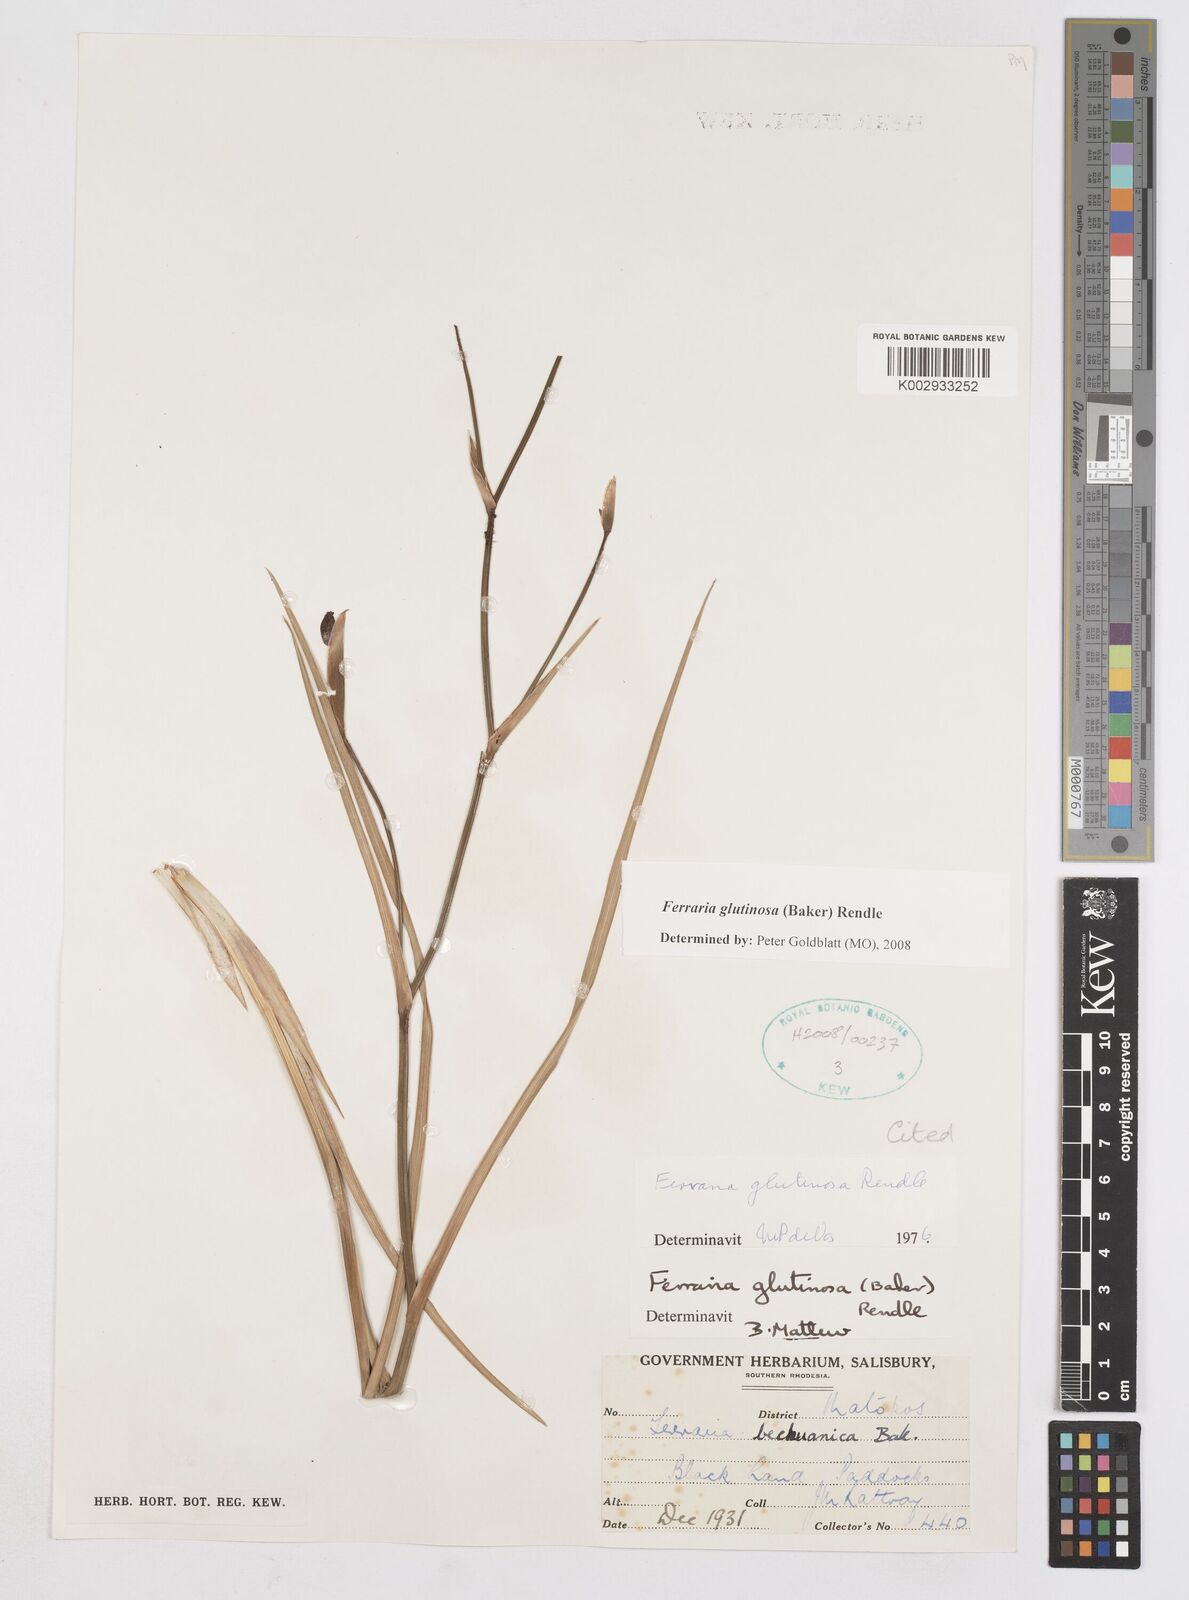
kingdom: Plantae
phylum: Tracheophyta
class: Liliopsida
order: Asparagales
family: Iridaceae
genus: Ferraria
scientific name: Ferraria glutinosa
